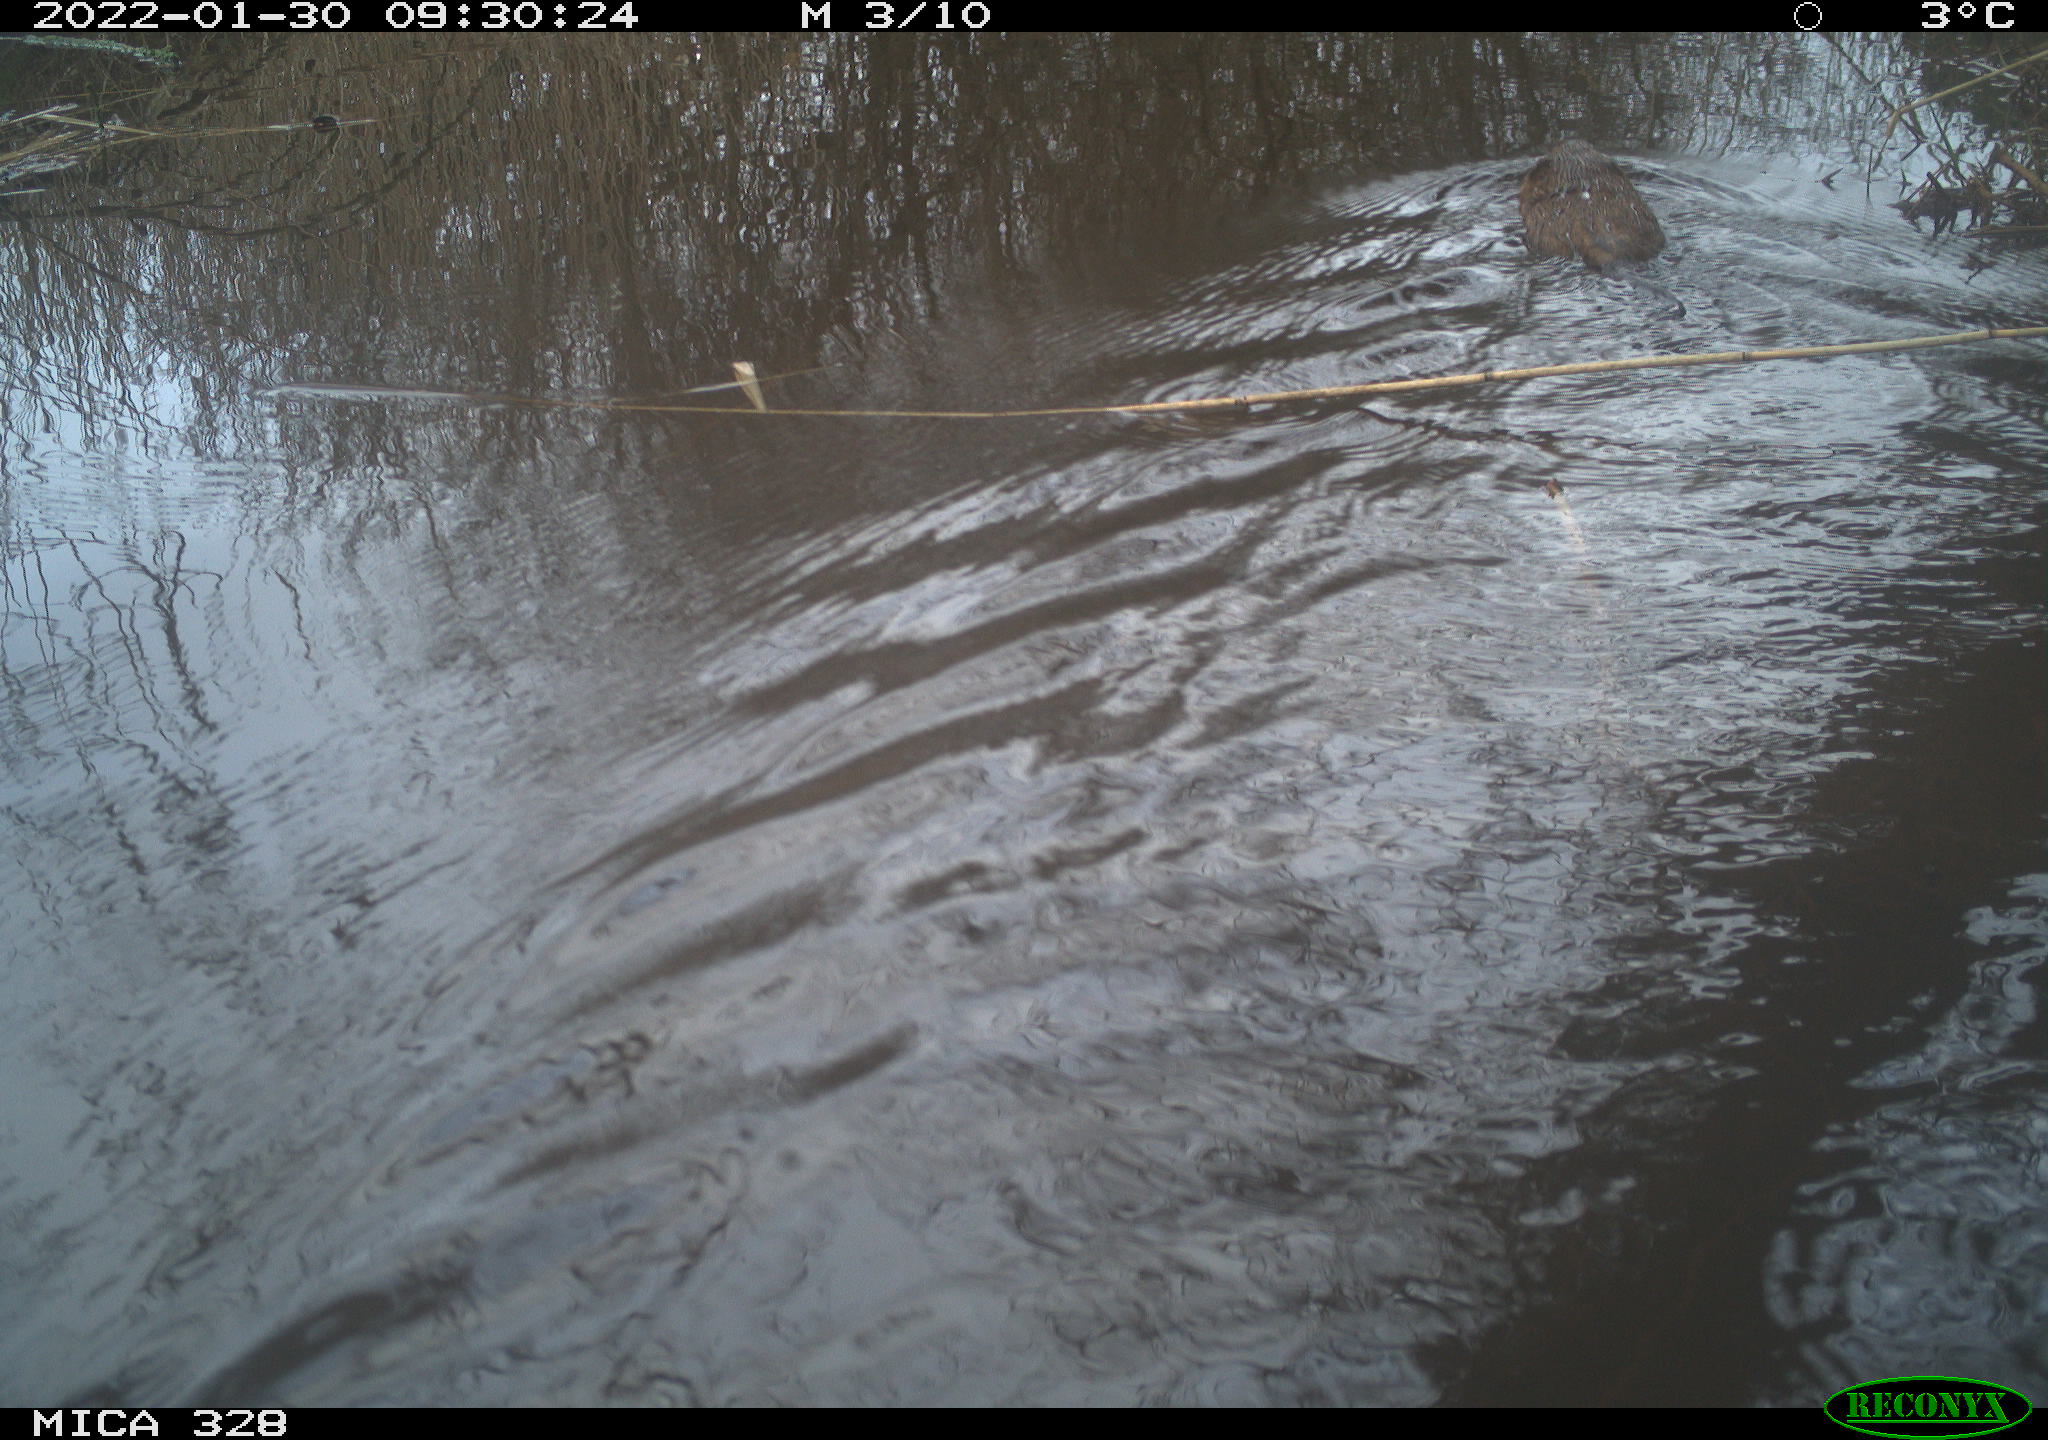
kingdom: Animalia
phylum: Chordata
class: Mammalia
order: Rodentia
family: Cricetidae
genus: Ondatra
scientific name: Ondatra zibethicus
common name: Muskrat
